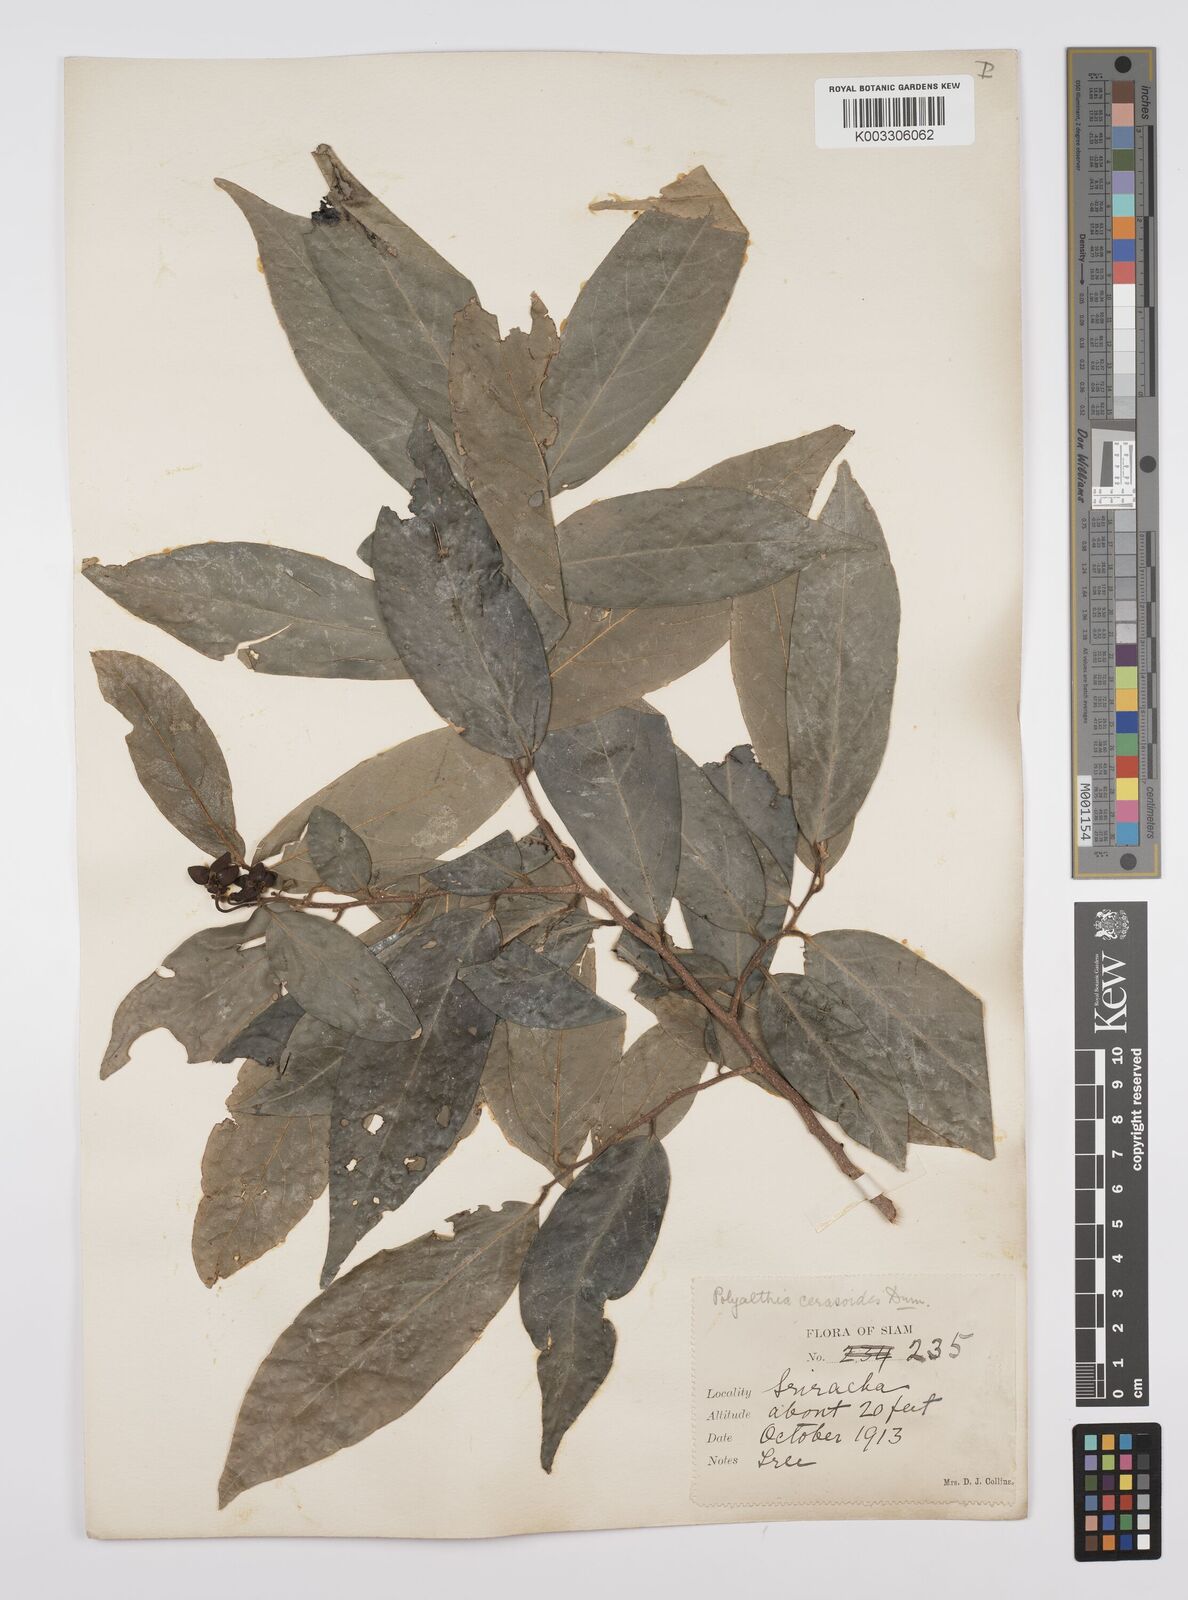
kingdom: Plantae
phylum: Tracheophyta
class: Magnoliopsida
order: Magnoliales
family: Annonaceae
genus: Hubera
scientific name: Hubera cerasoides
